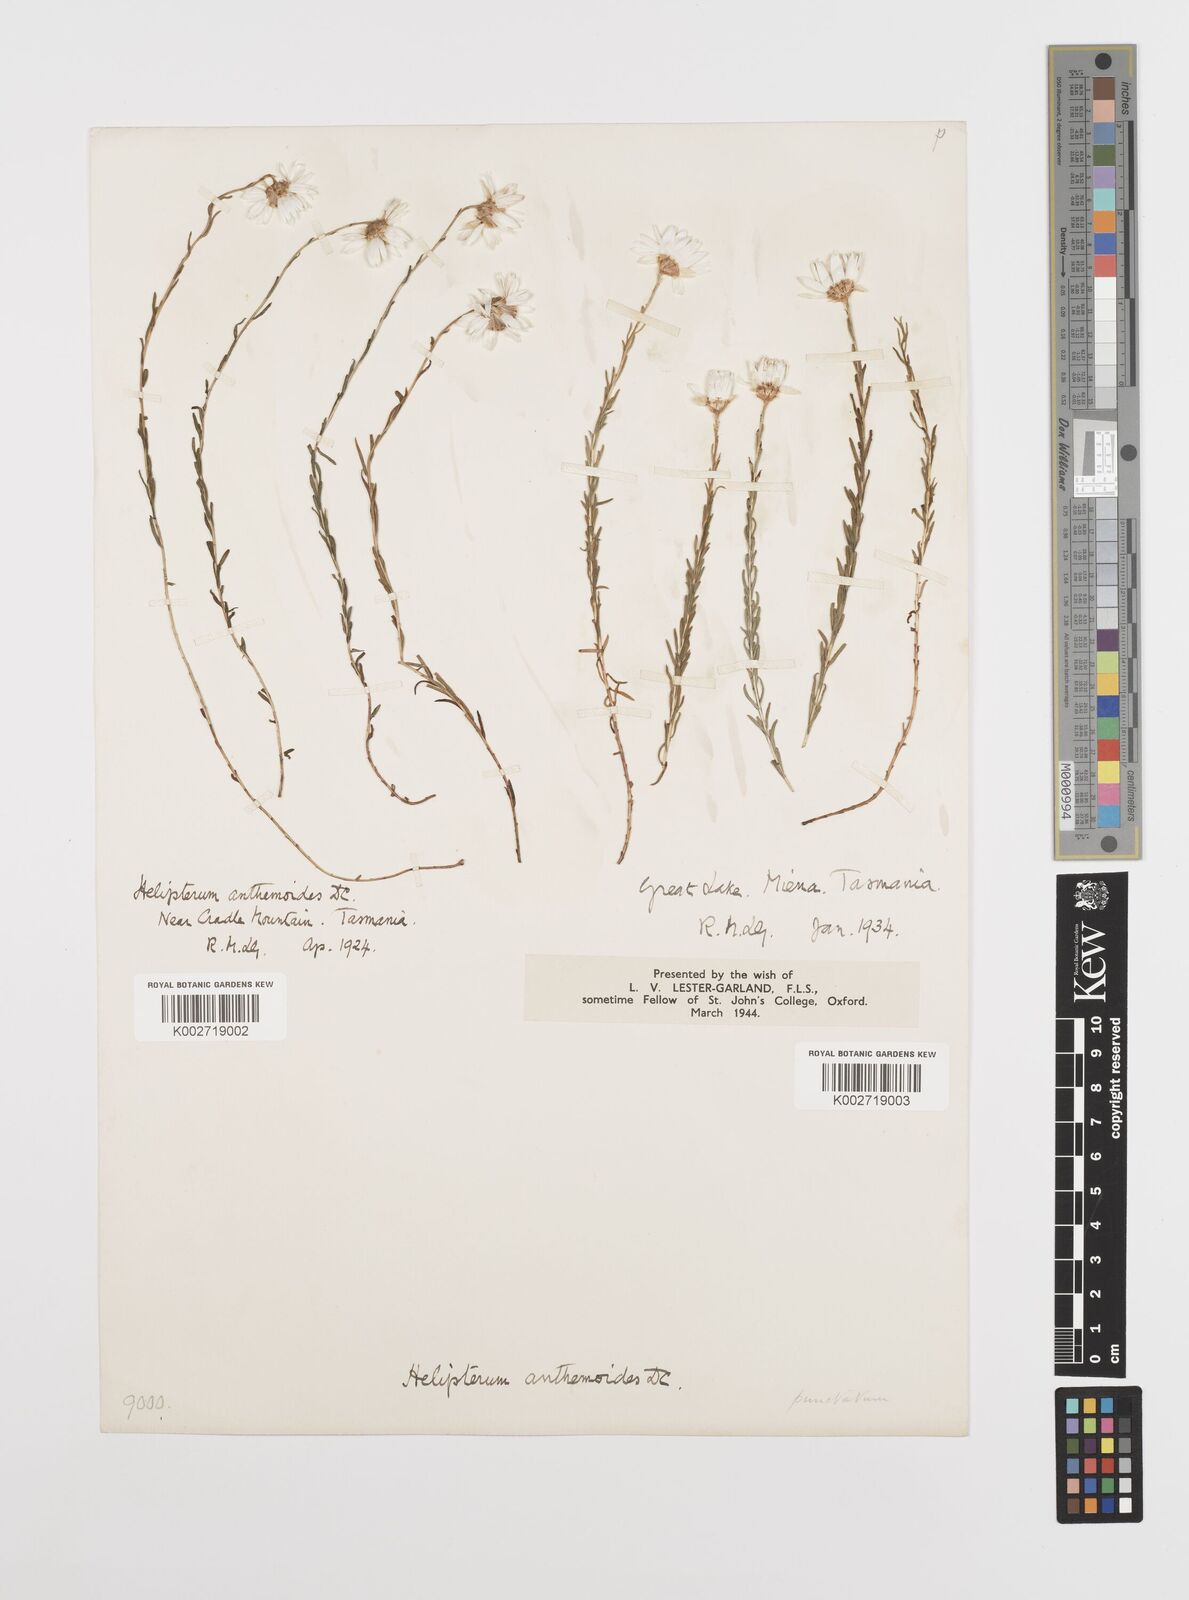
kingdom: Plantae
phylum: Tracheophyta
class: Magnoliopsida
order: Asterales
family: Asteraceae
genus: Rhodanthe
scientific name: Rhodanthe anthemoides
